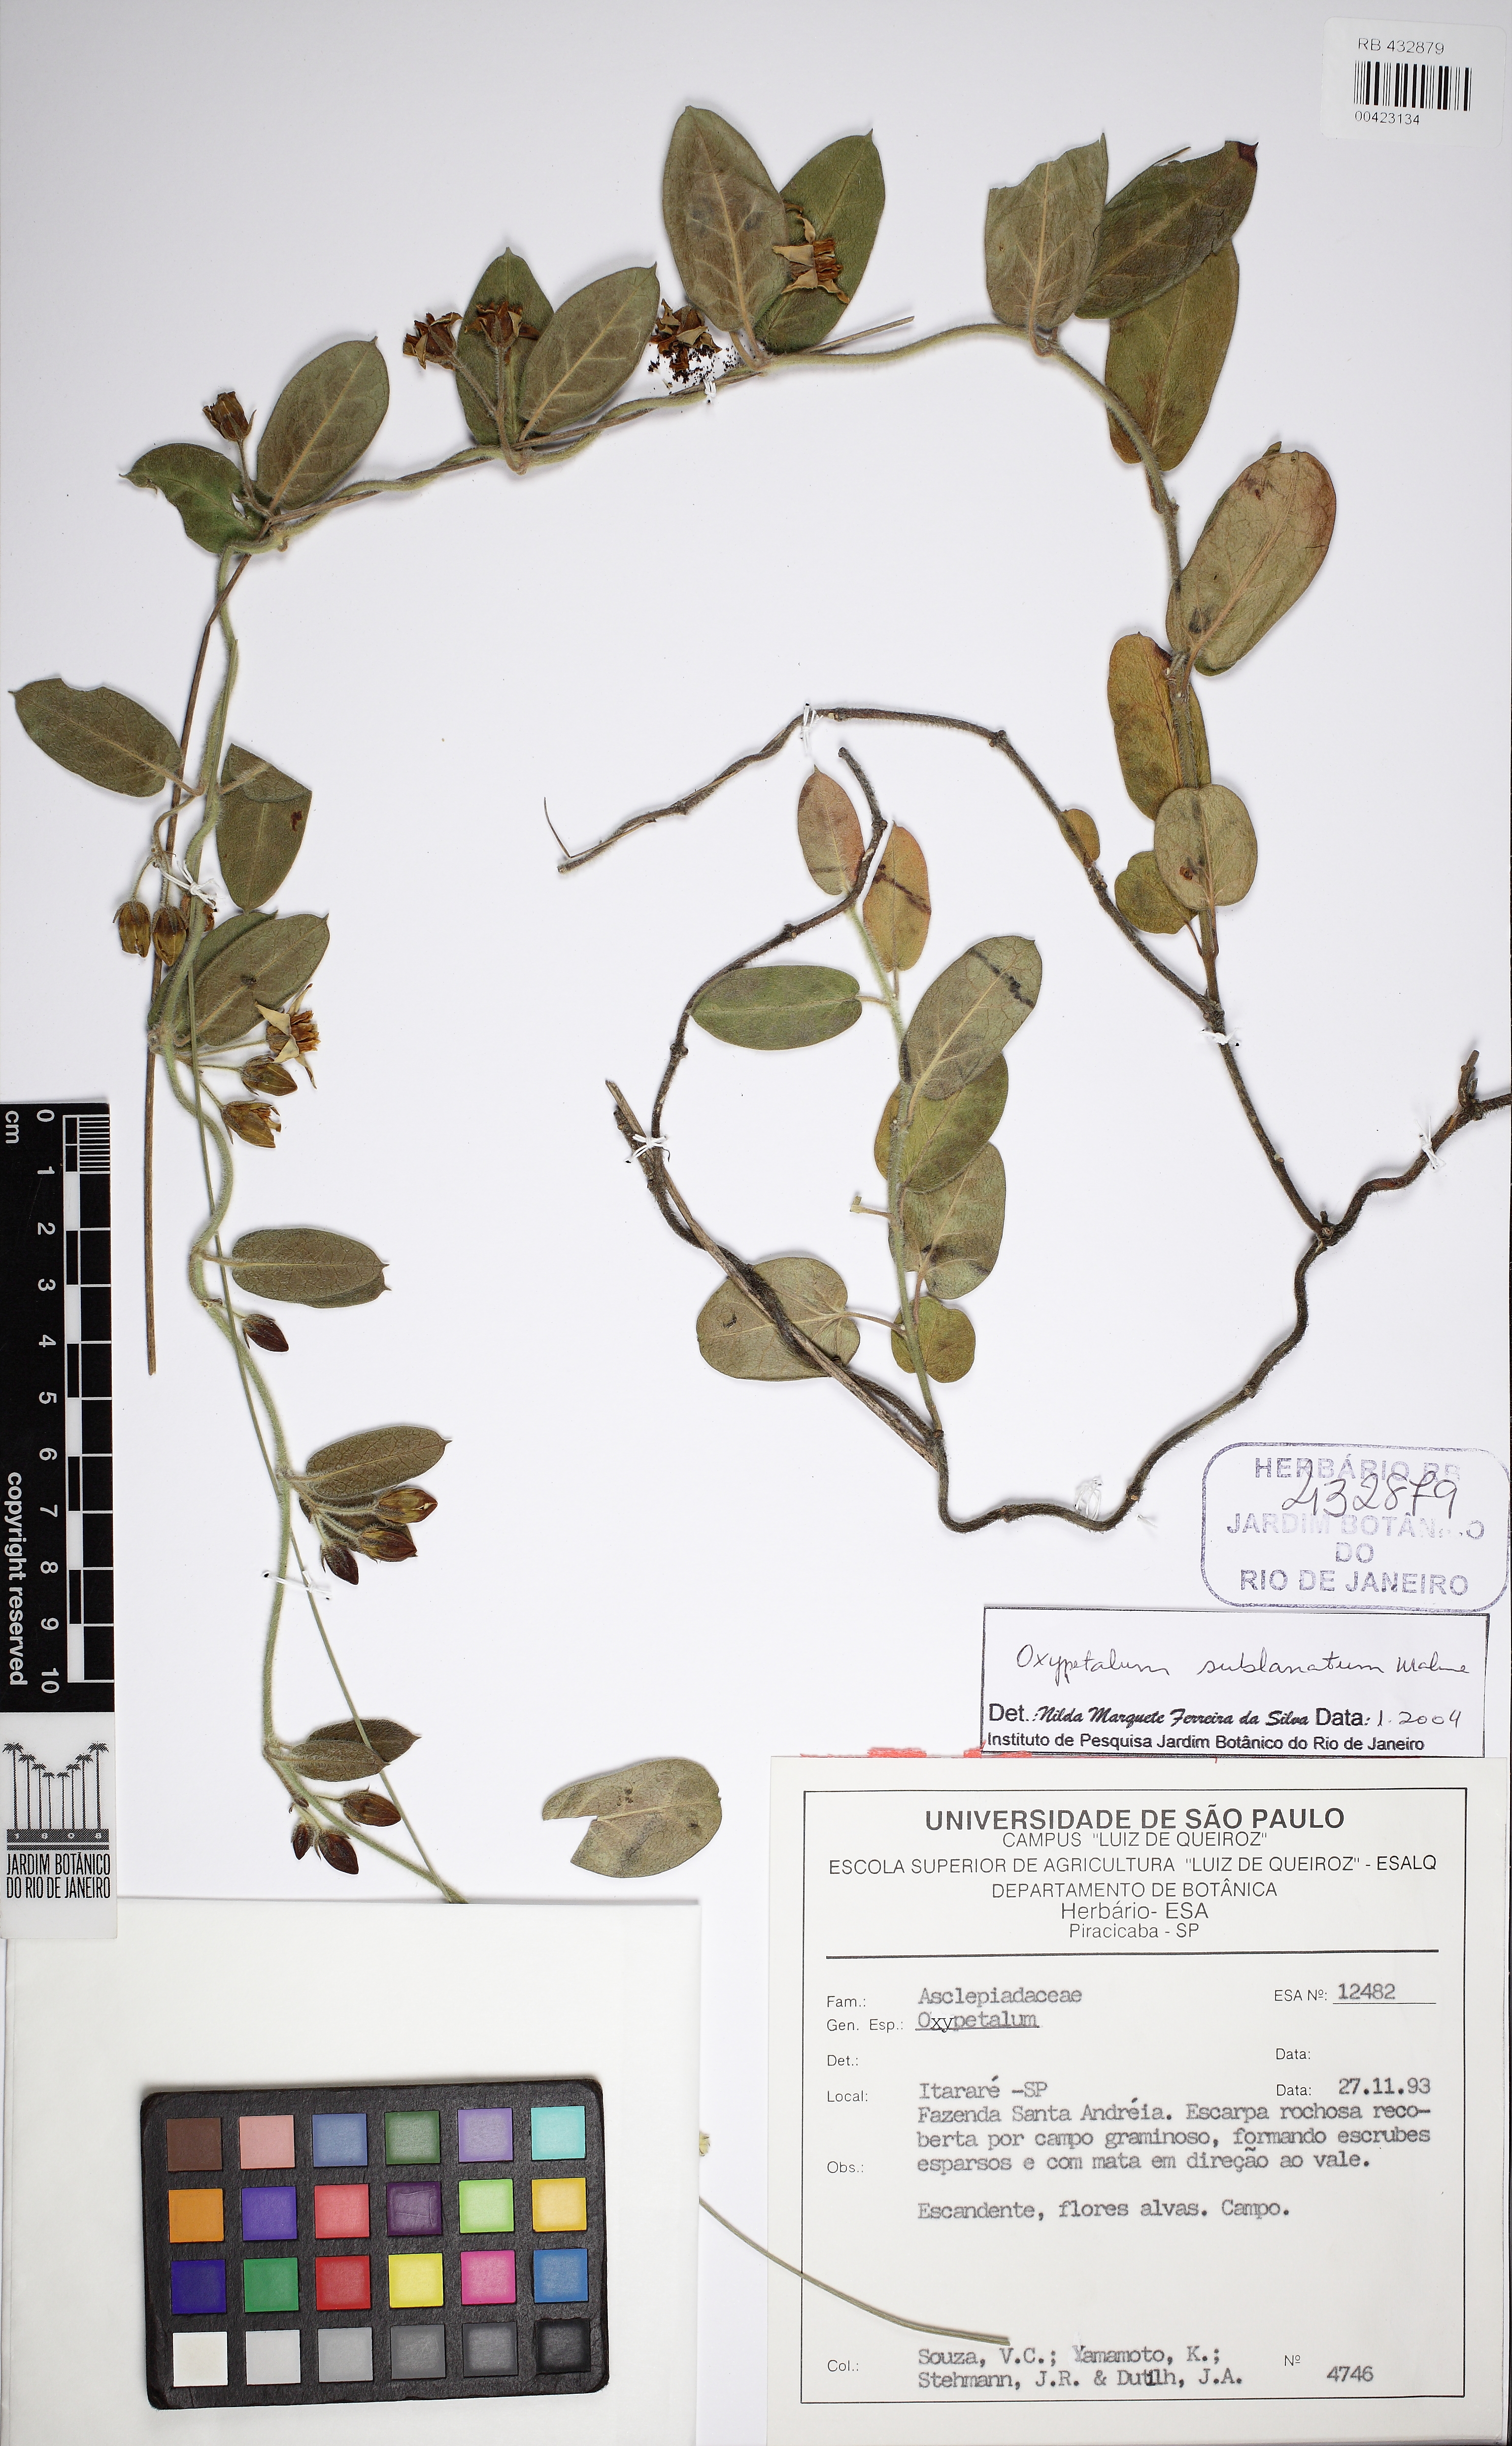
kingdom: Plantae
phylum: Tracheophyta
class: Magnoliopsida
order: Gentianales
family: Apocynaceae
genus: Oxypetalum
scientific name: Oxypetalum sublanatum
